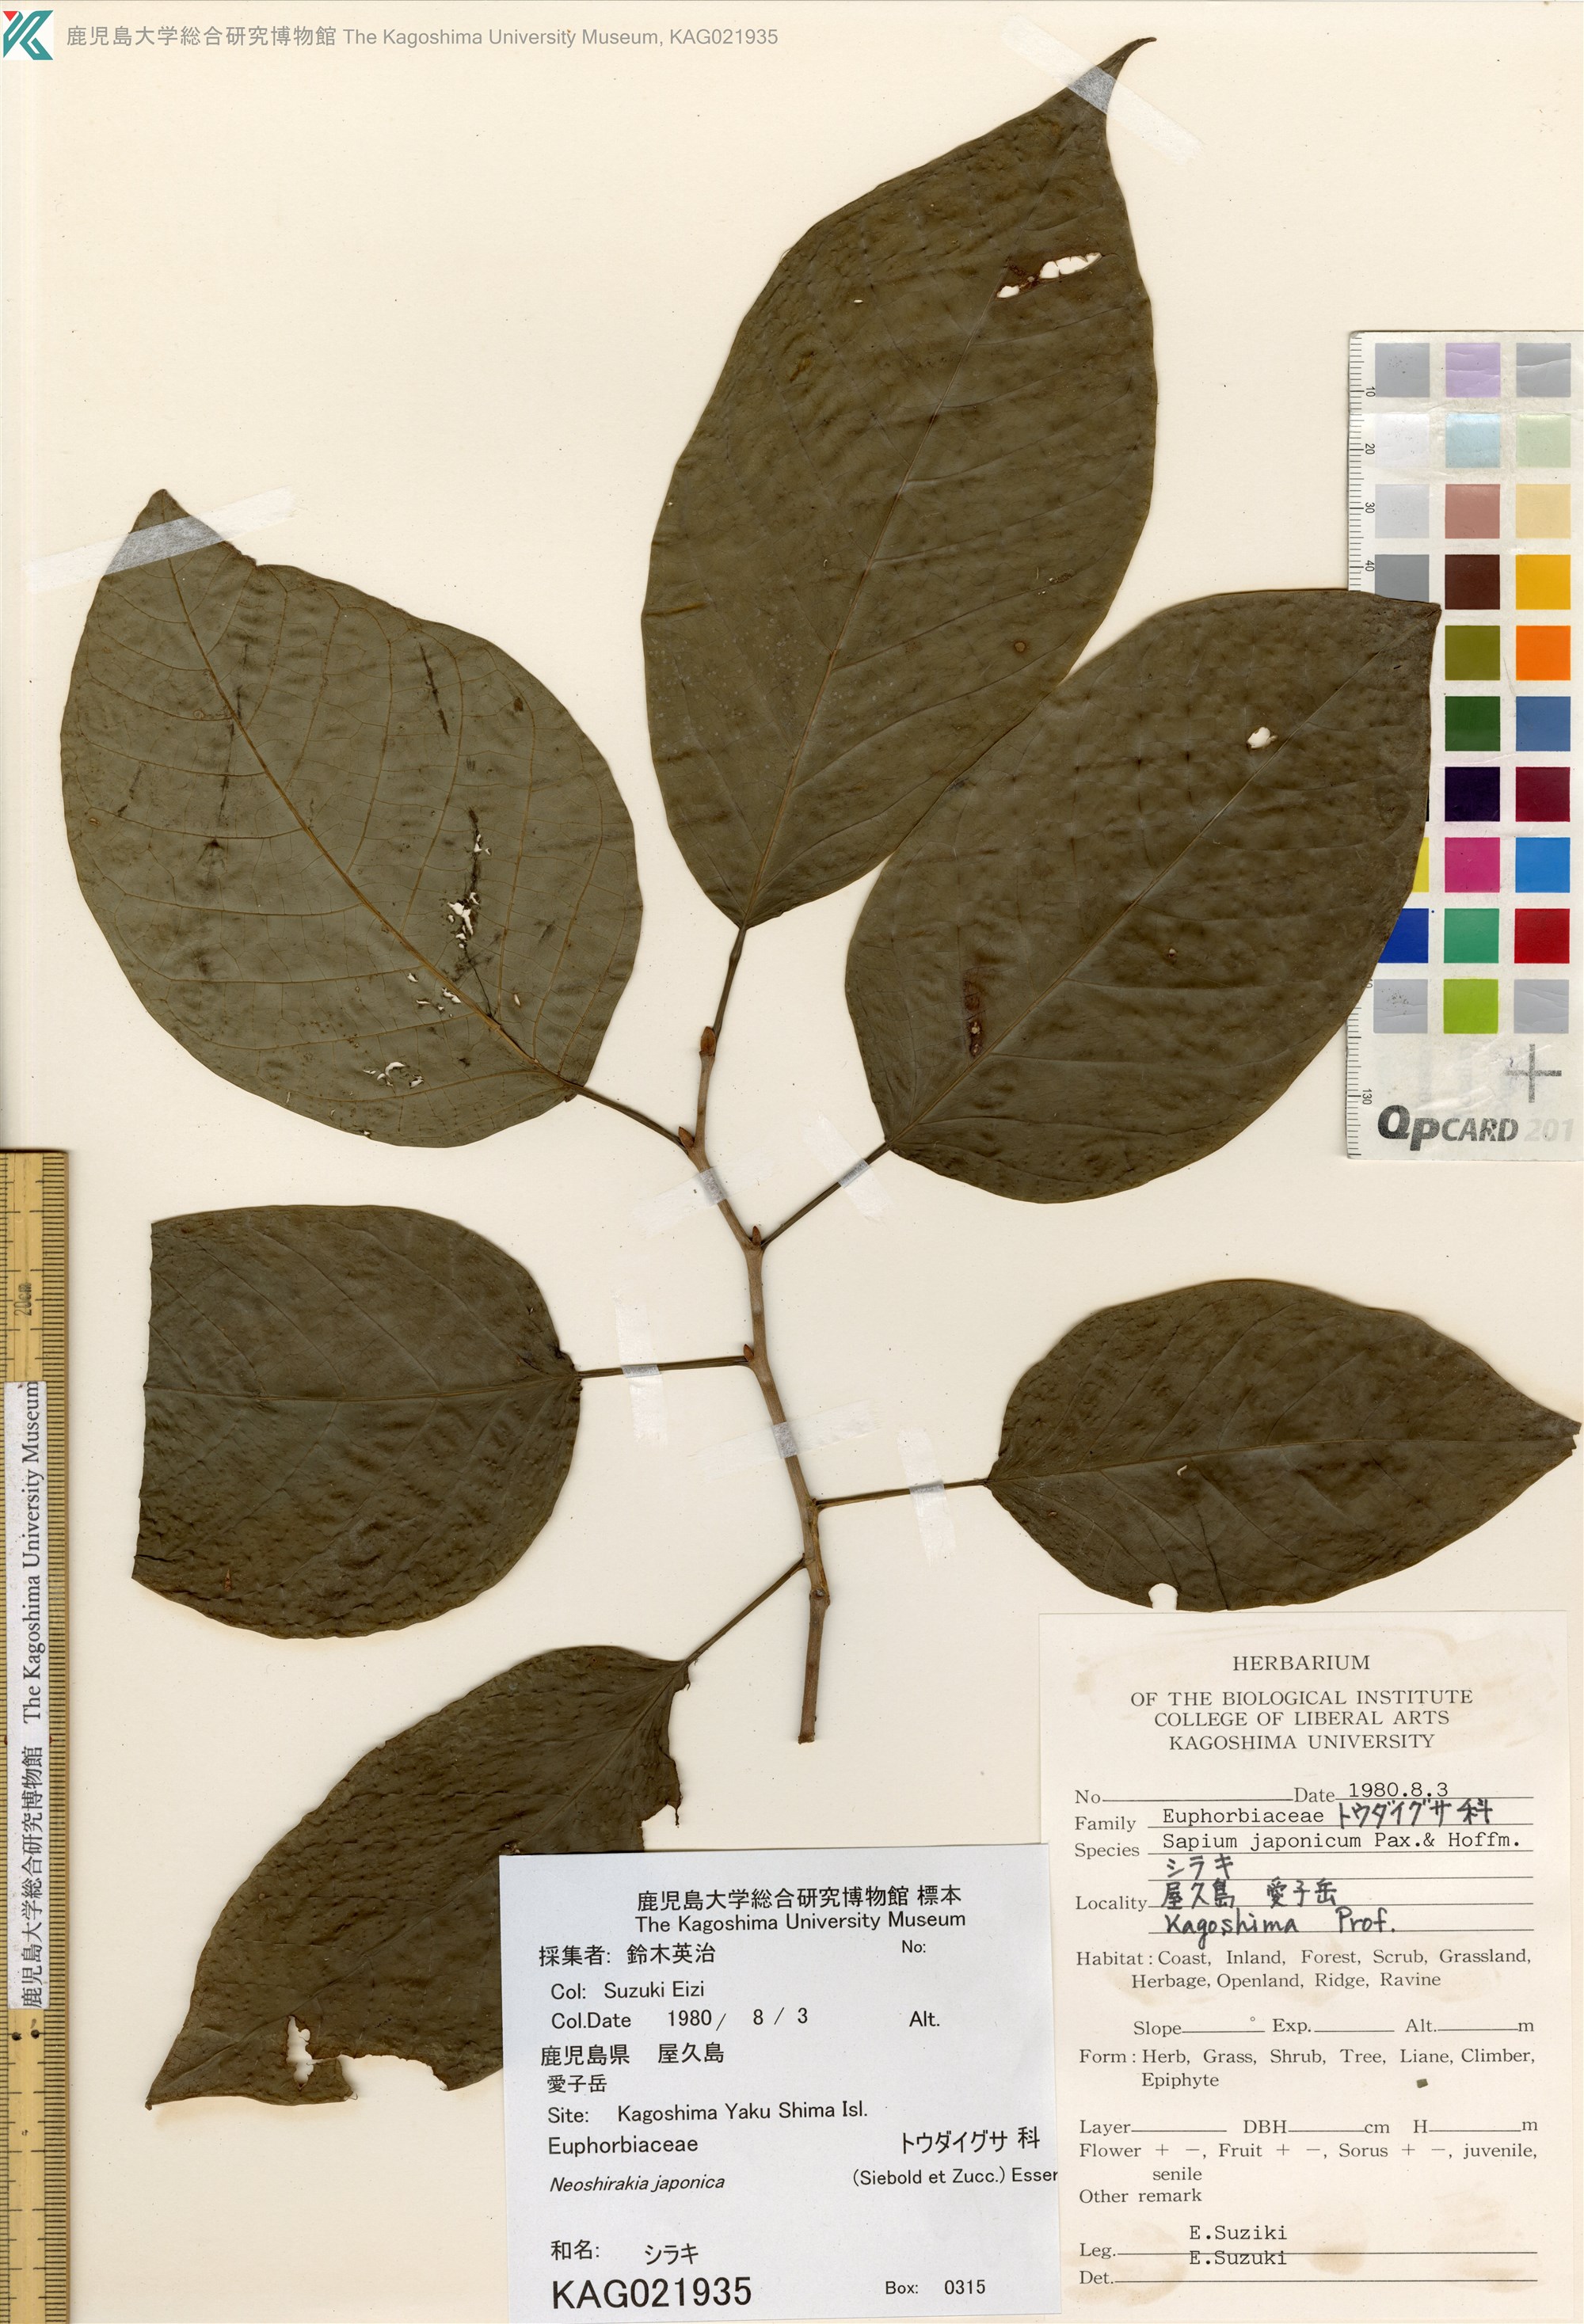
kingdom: Plantae
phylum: Tracheophyta
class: Magnoliopsida
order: Malpighiales
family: Euphorbiaceae
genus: Neoshirakia
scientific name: Neoshirakia japonica
